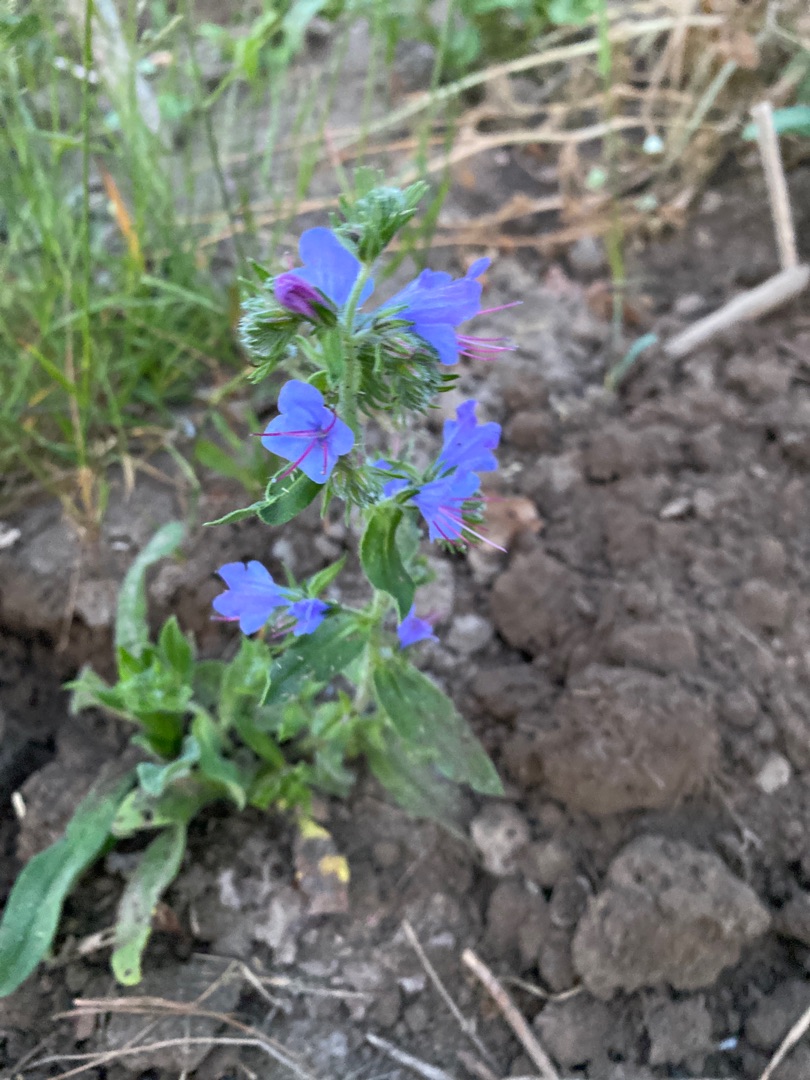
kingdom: Plantae
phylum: Tracheophyta
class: Magnoliopsida
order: Boraginales
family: Boraginaceae
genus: Echium
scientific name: Echium vulgare
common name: Slangehoved
